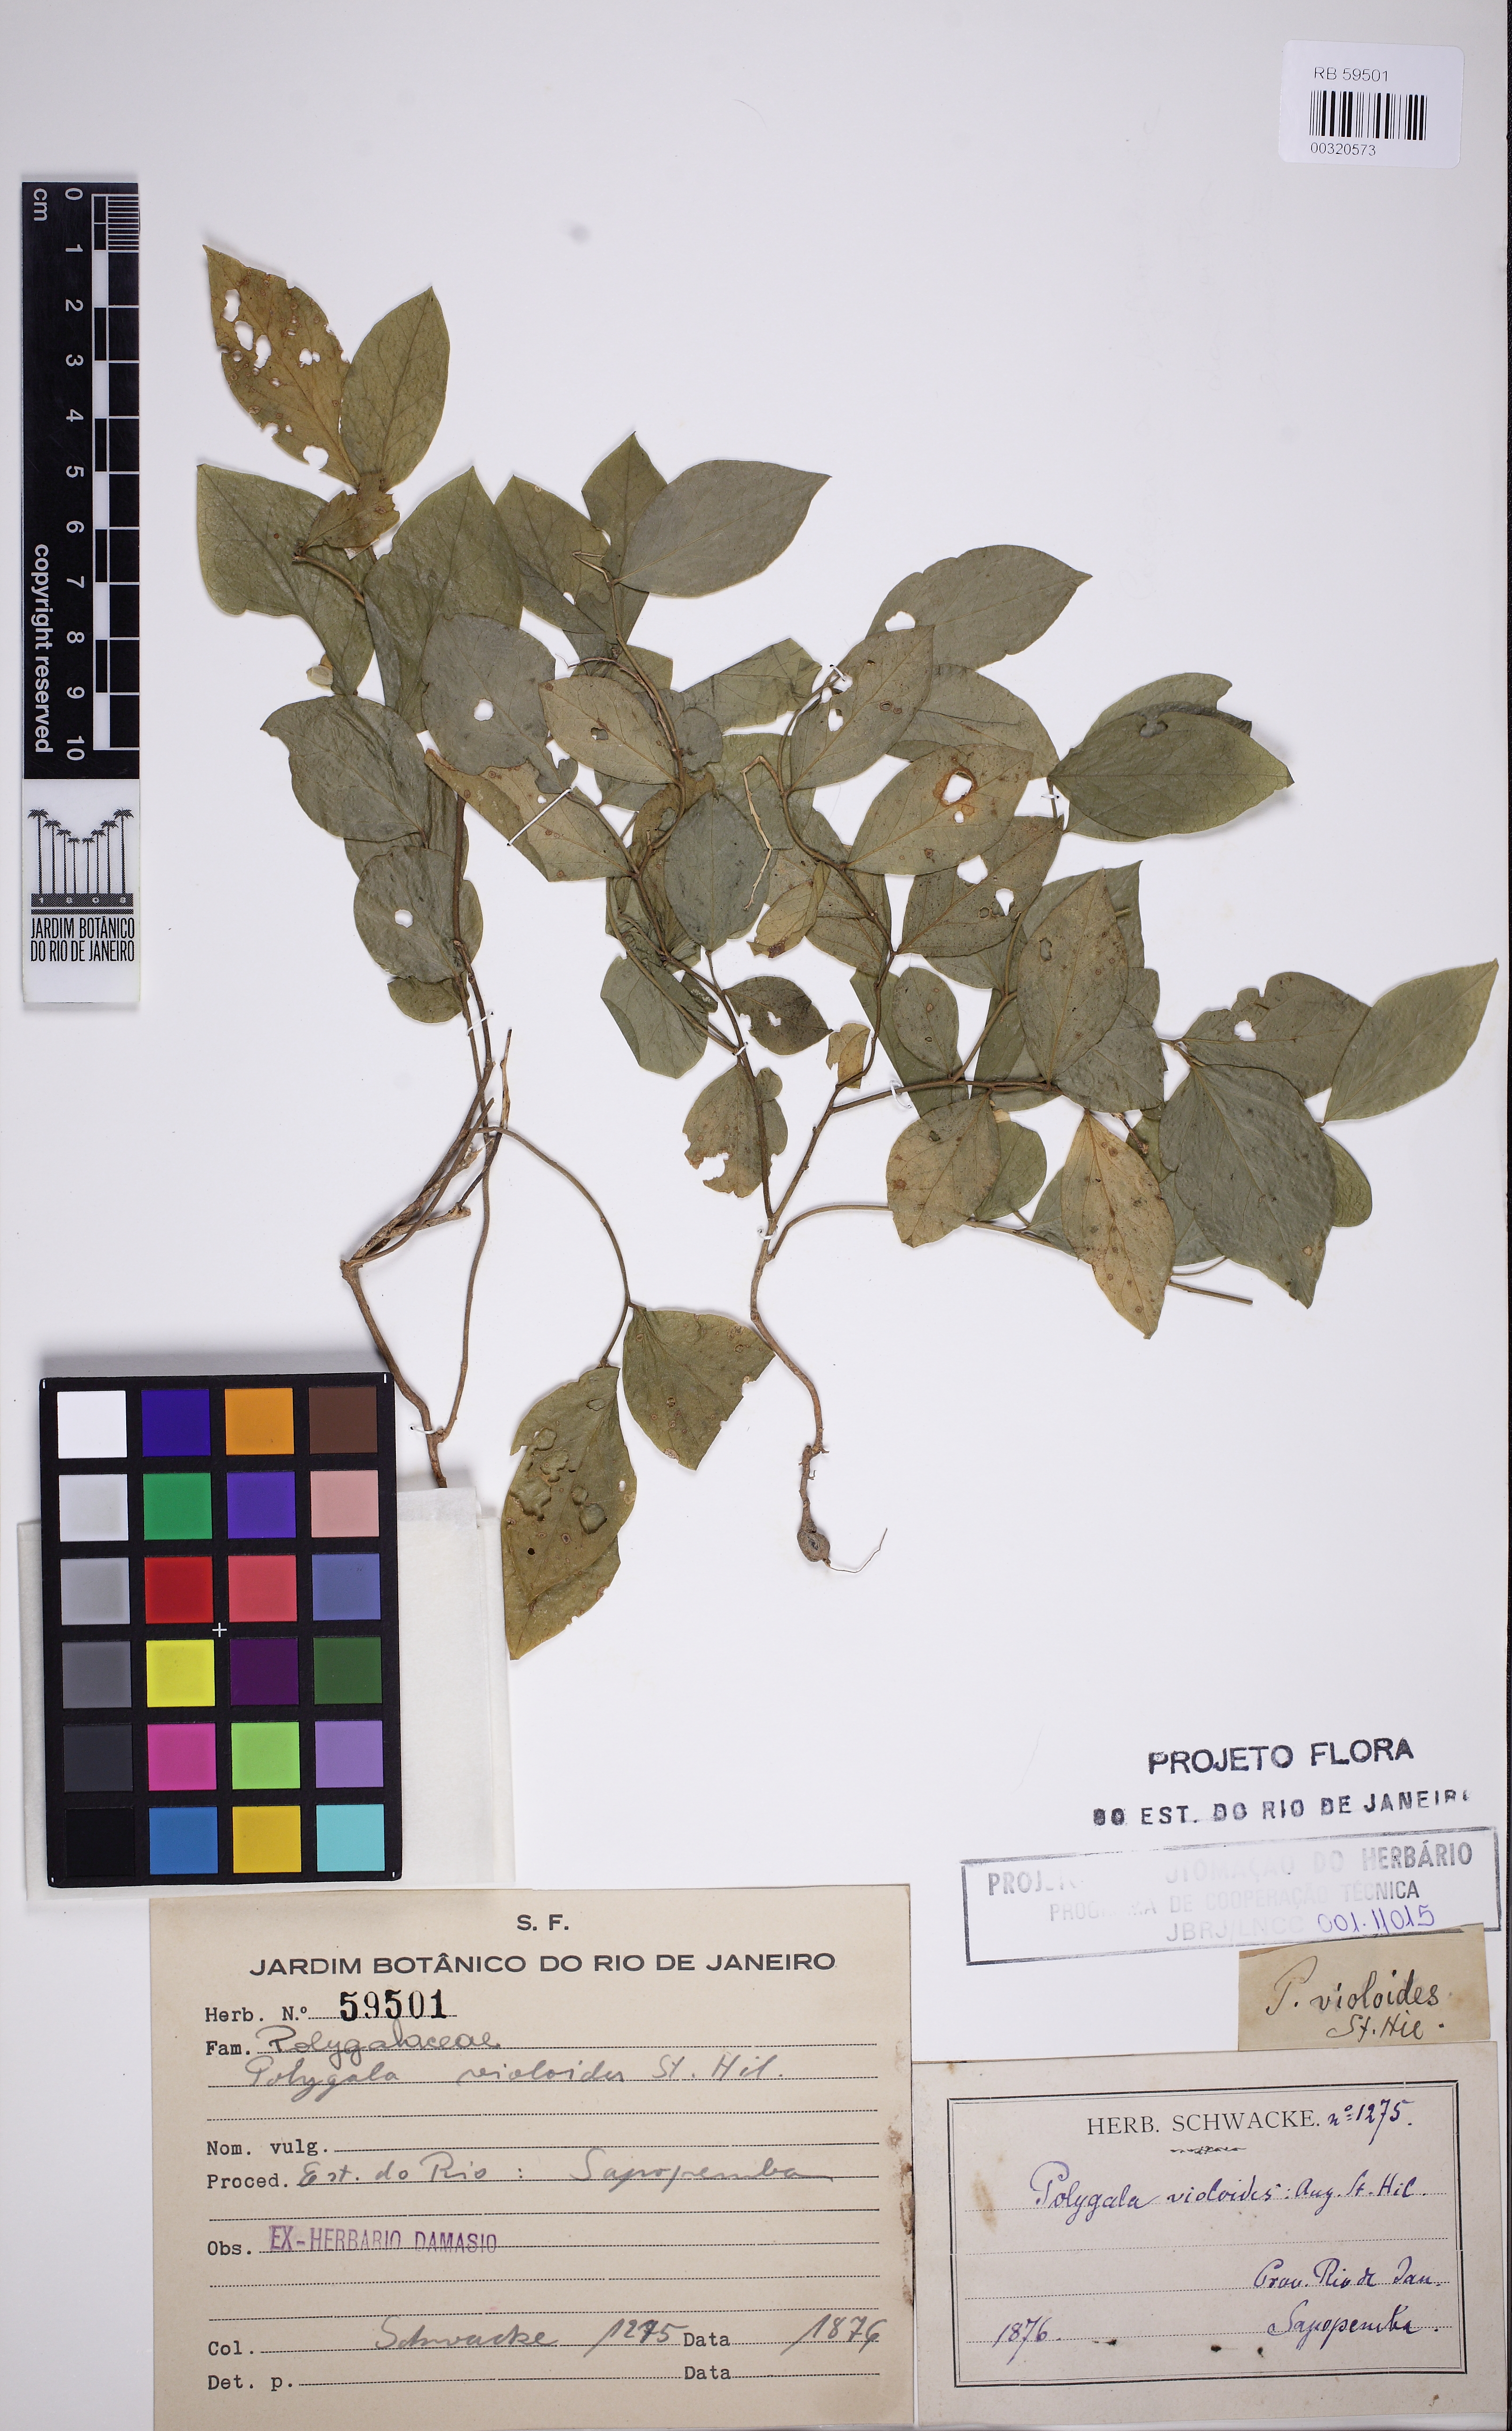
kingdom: Plantae
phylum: Tracheophyta
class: Magnoliopsida
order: Fabales
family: Polygalaceae
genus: Gymnospora
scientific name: Gymnospora violoides
